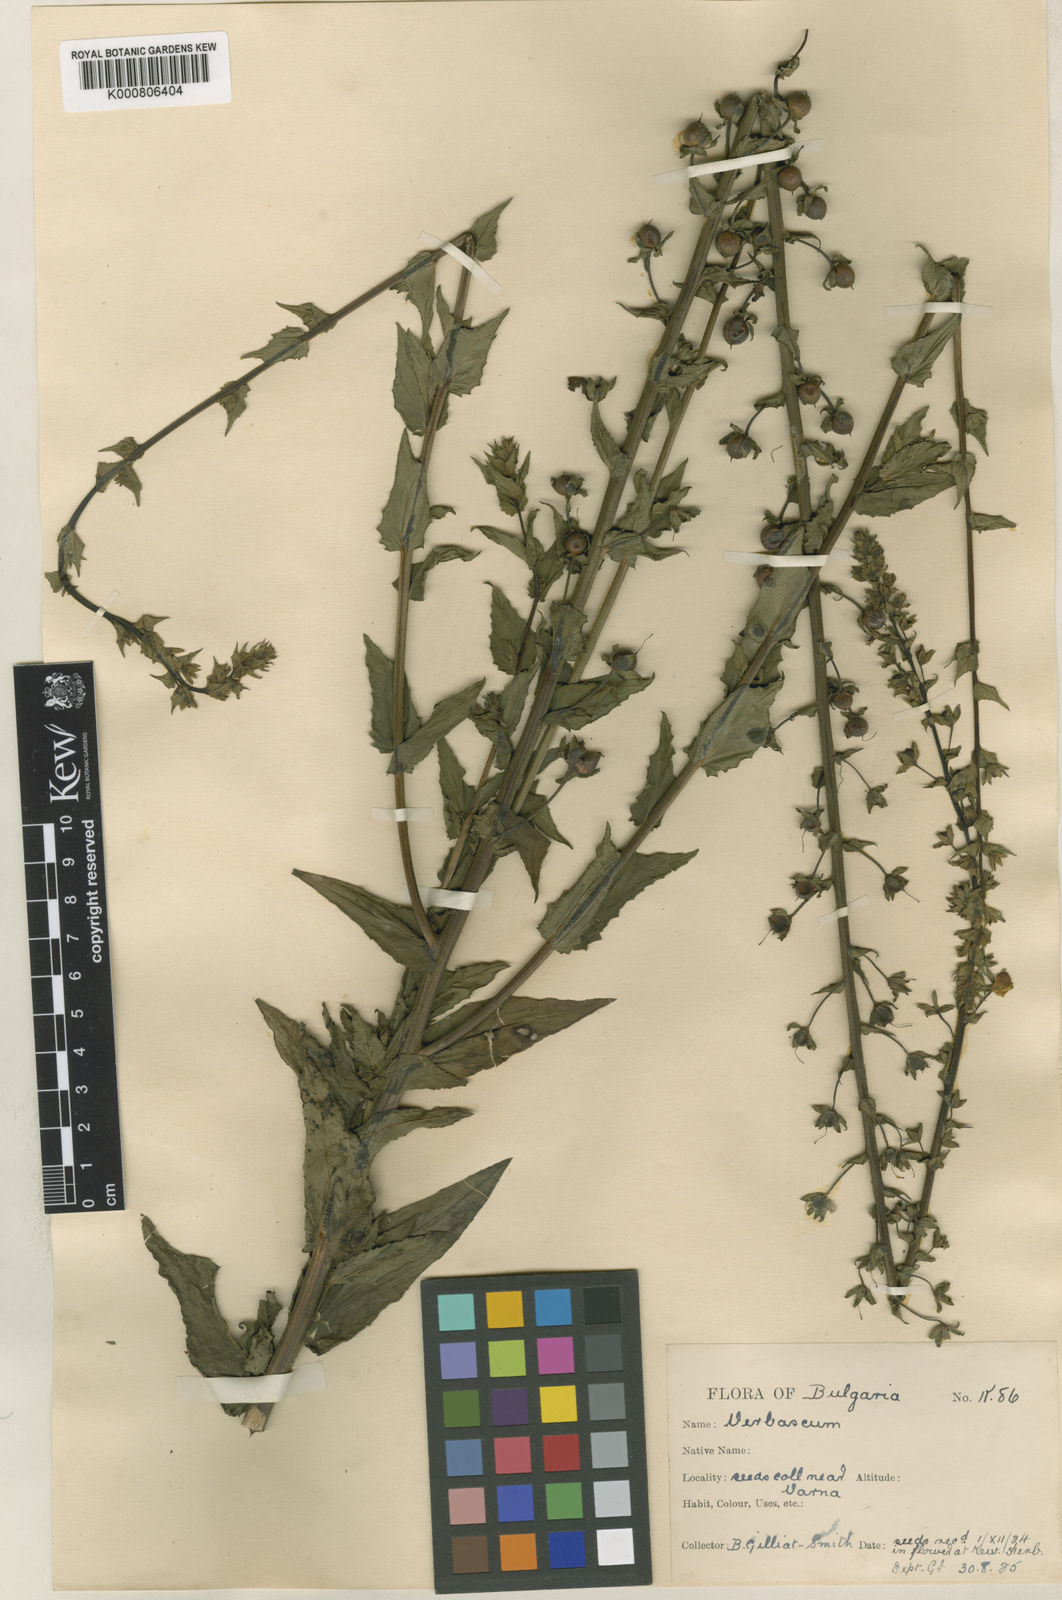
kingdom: Plantae
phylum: Tracheophyta
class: Magnoliopsida
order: Lamiales
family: Scrophulariaceae
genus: Verbascum
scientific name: Verbascum blattaria
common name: Moth mullein
